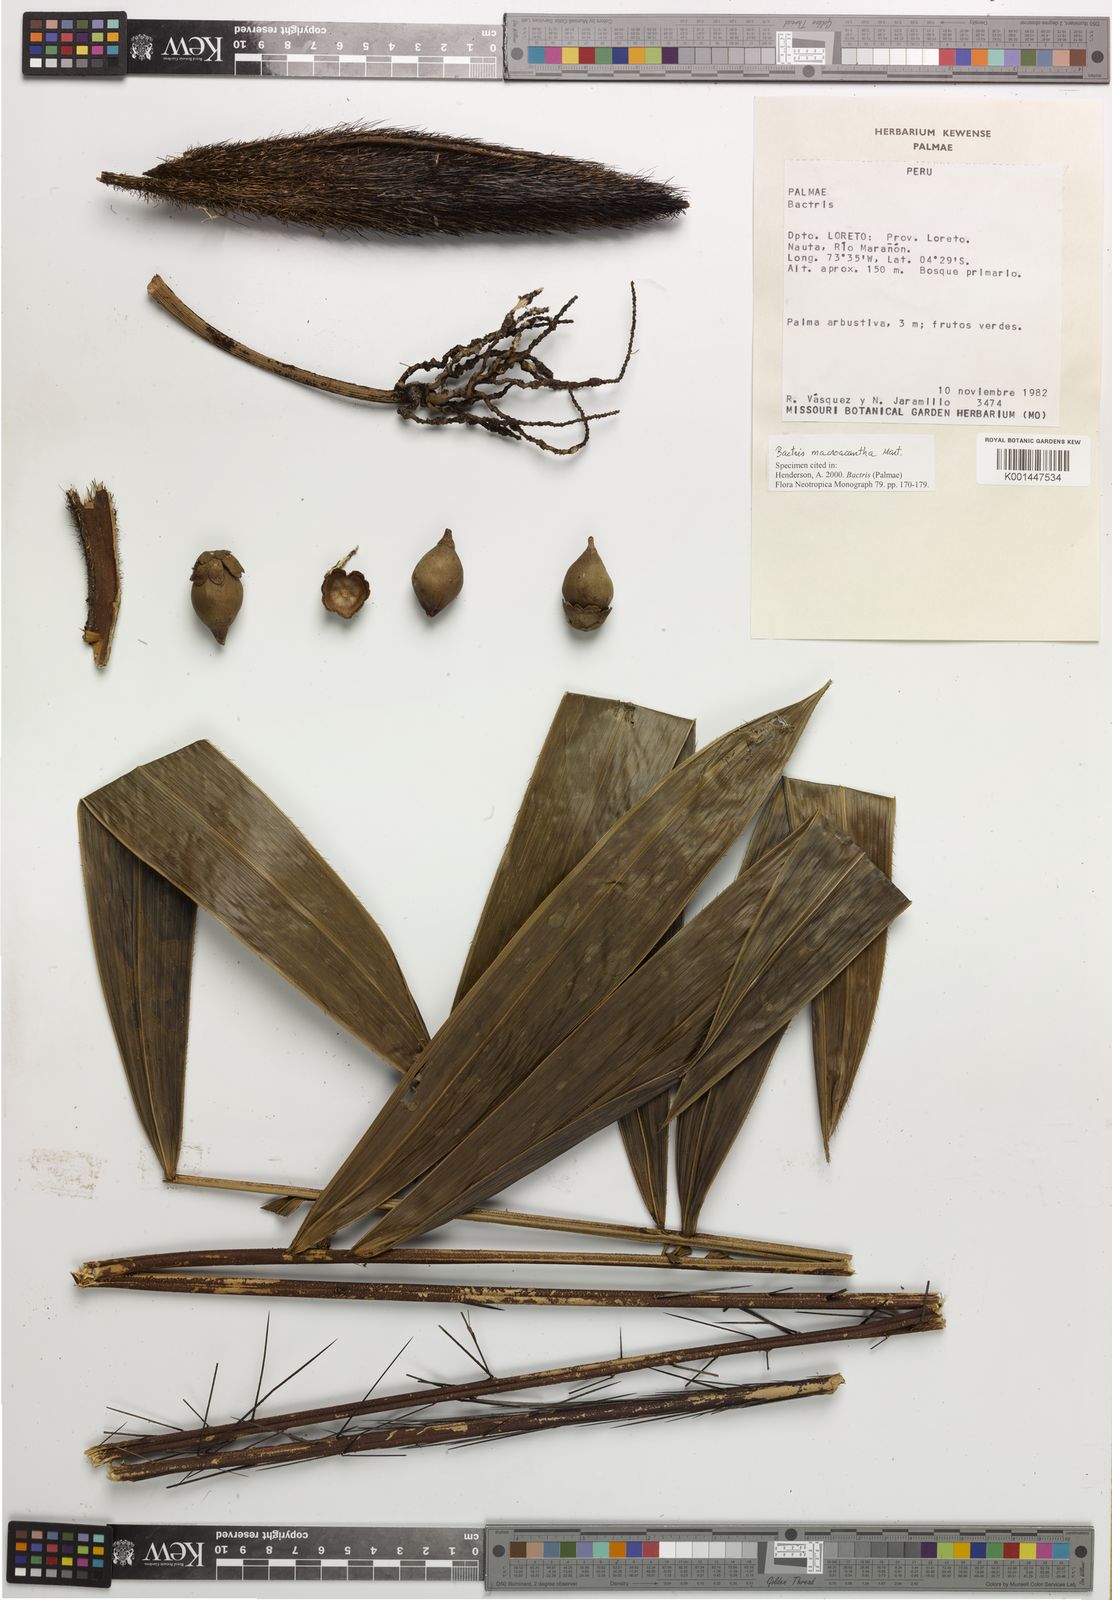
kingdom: Plantae
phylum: Tracheophyta
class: Liliopsida
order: Arecales
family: Arecaceae
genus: Bactris
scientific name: Bactris macroacantha
